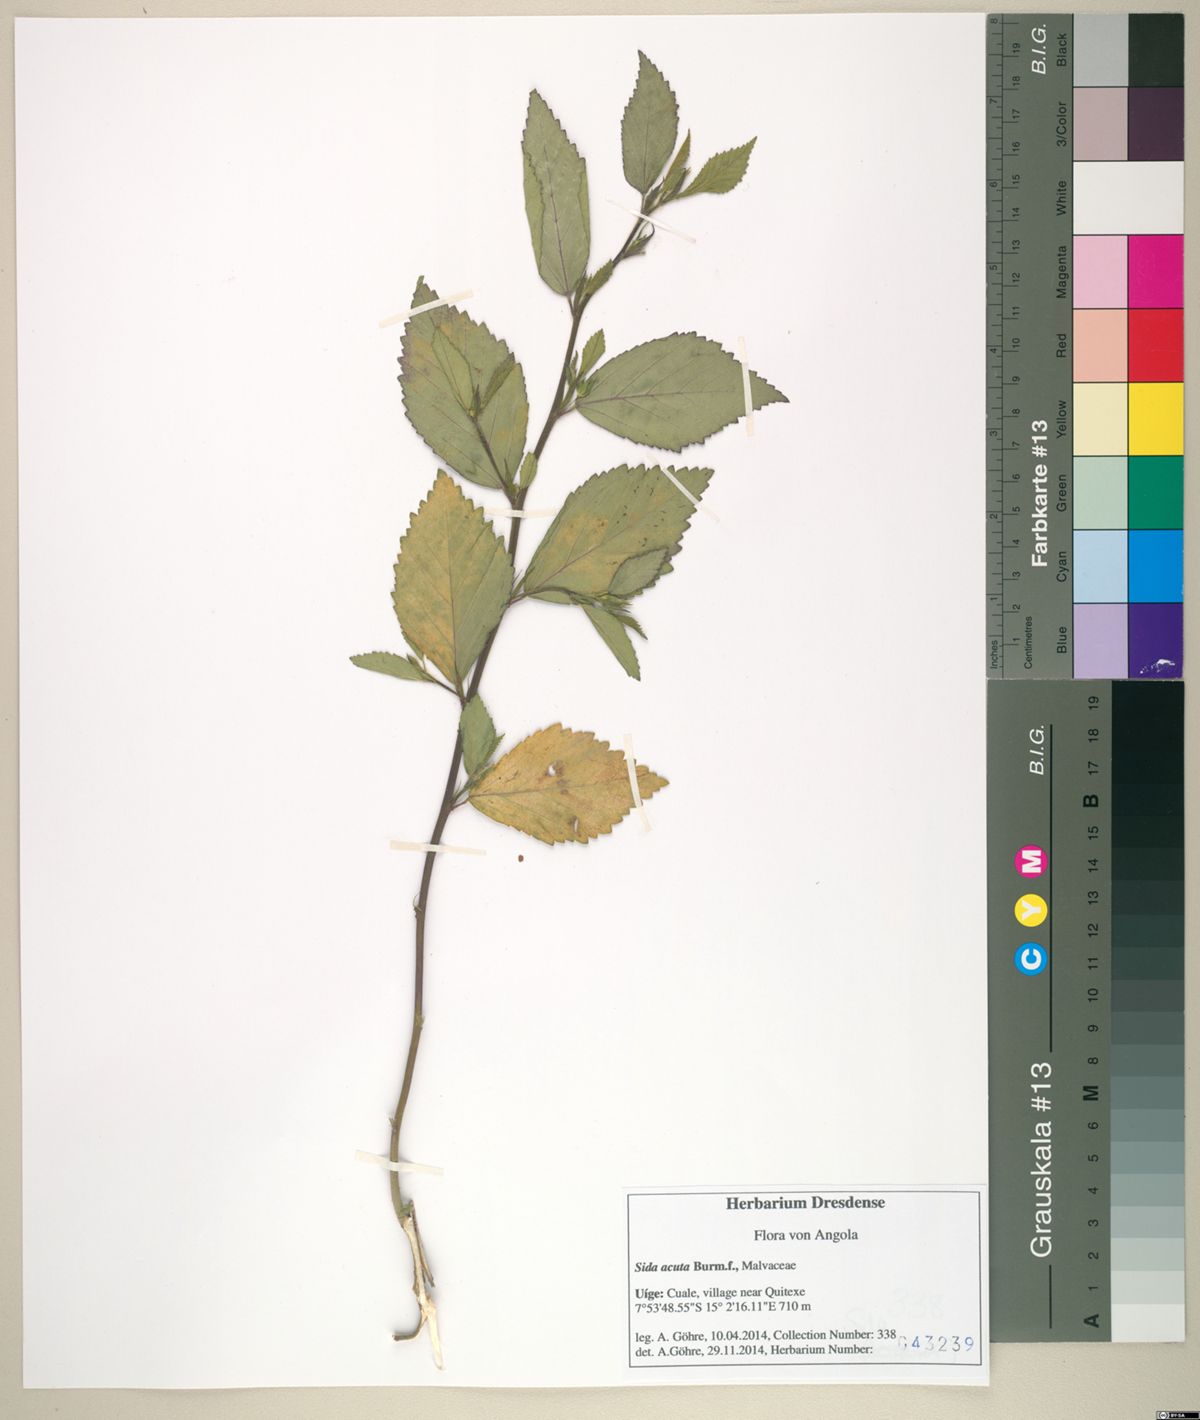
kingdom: Plantae
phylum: Tracheophyta
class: Magnoliopsida
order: Malvales
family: Malvaceae
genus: Sida
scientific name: Sida acuta
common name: Common wireweed
